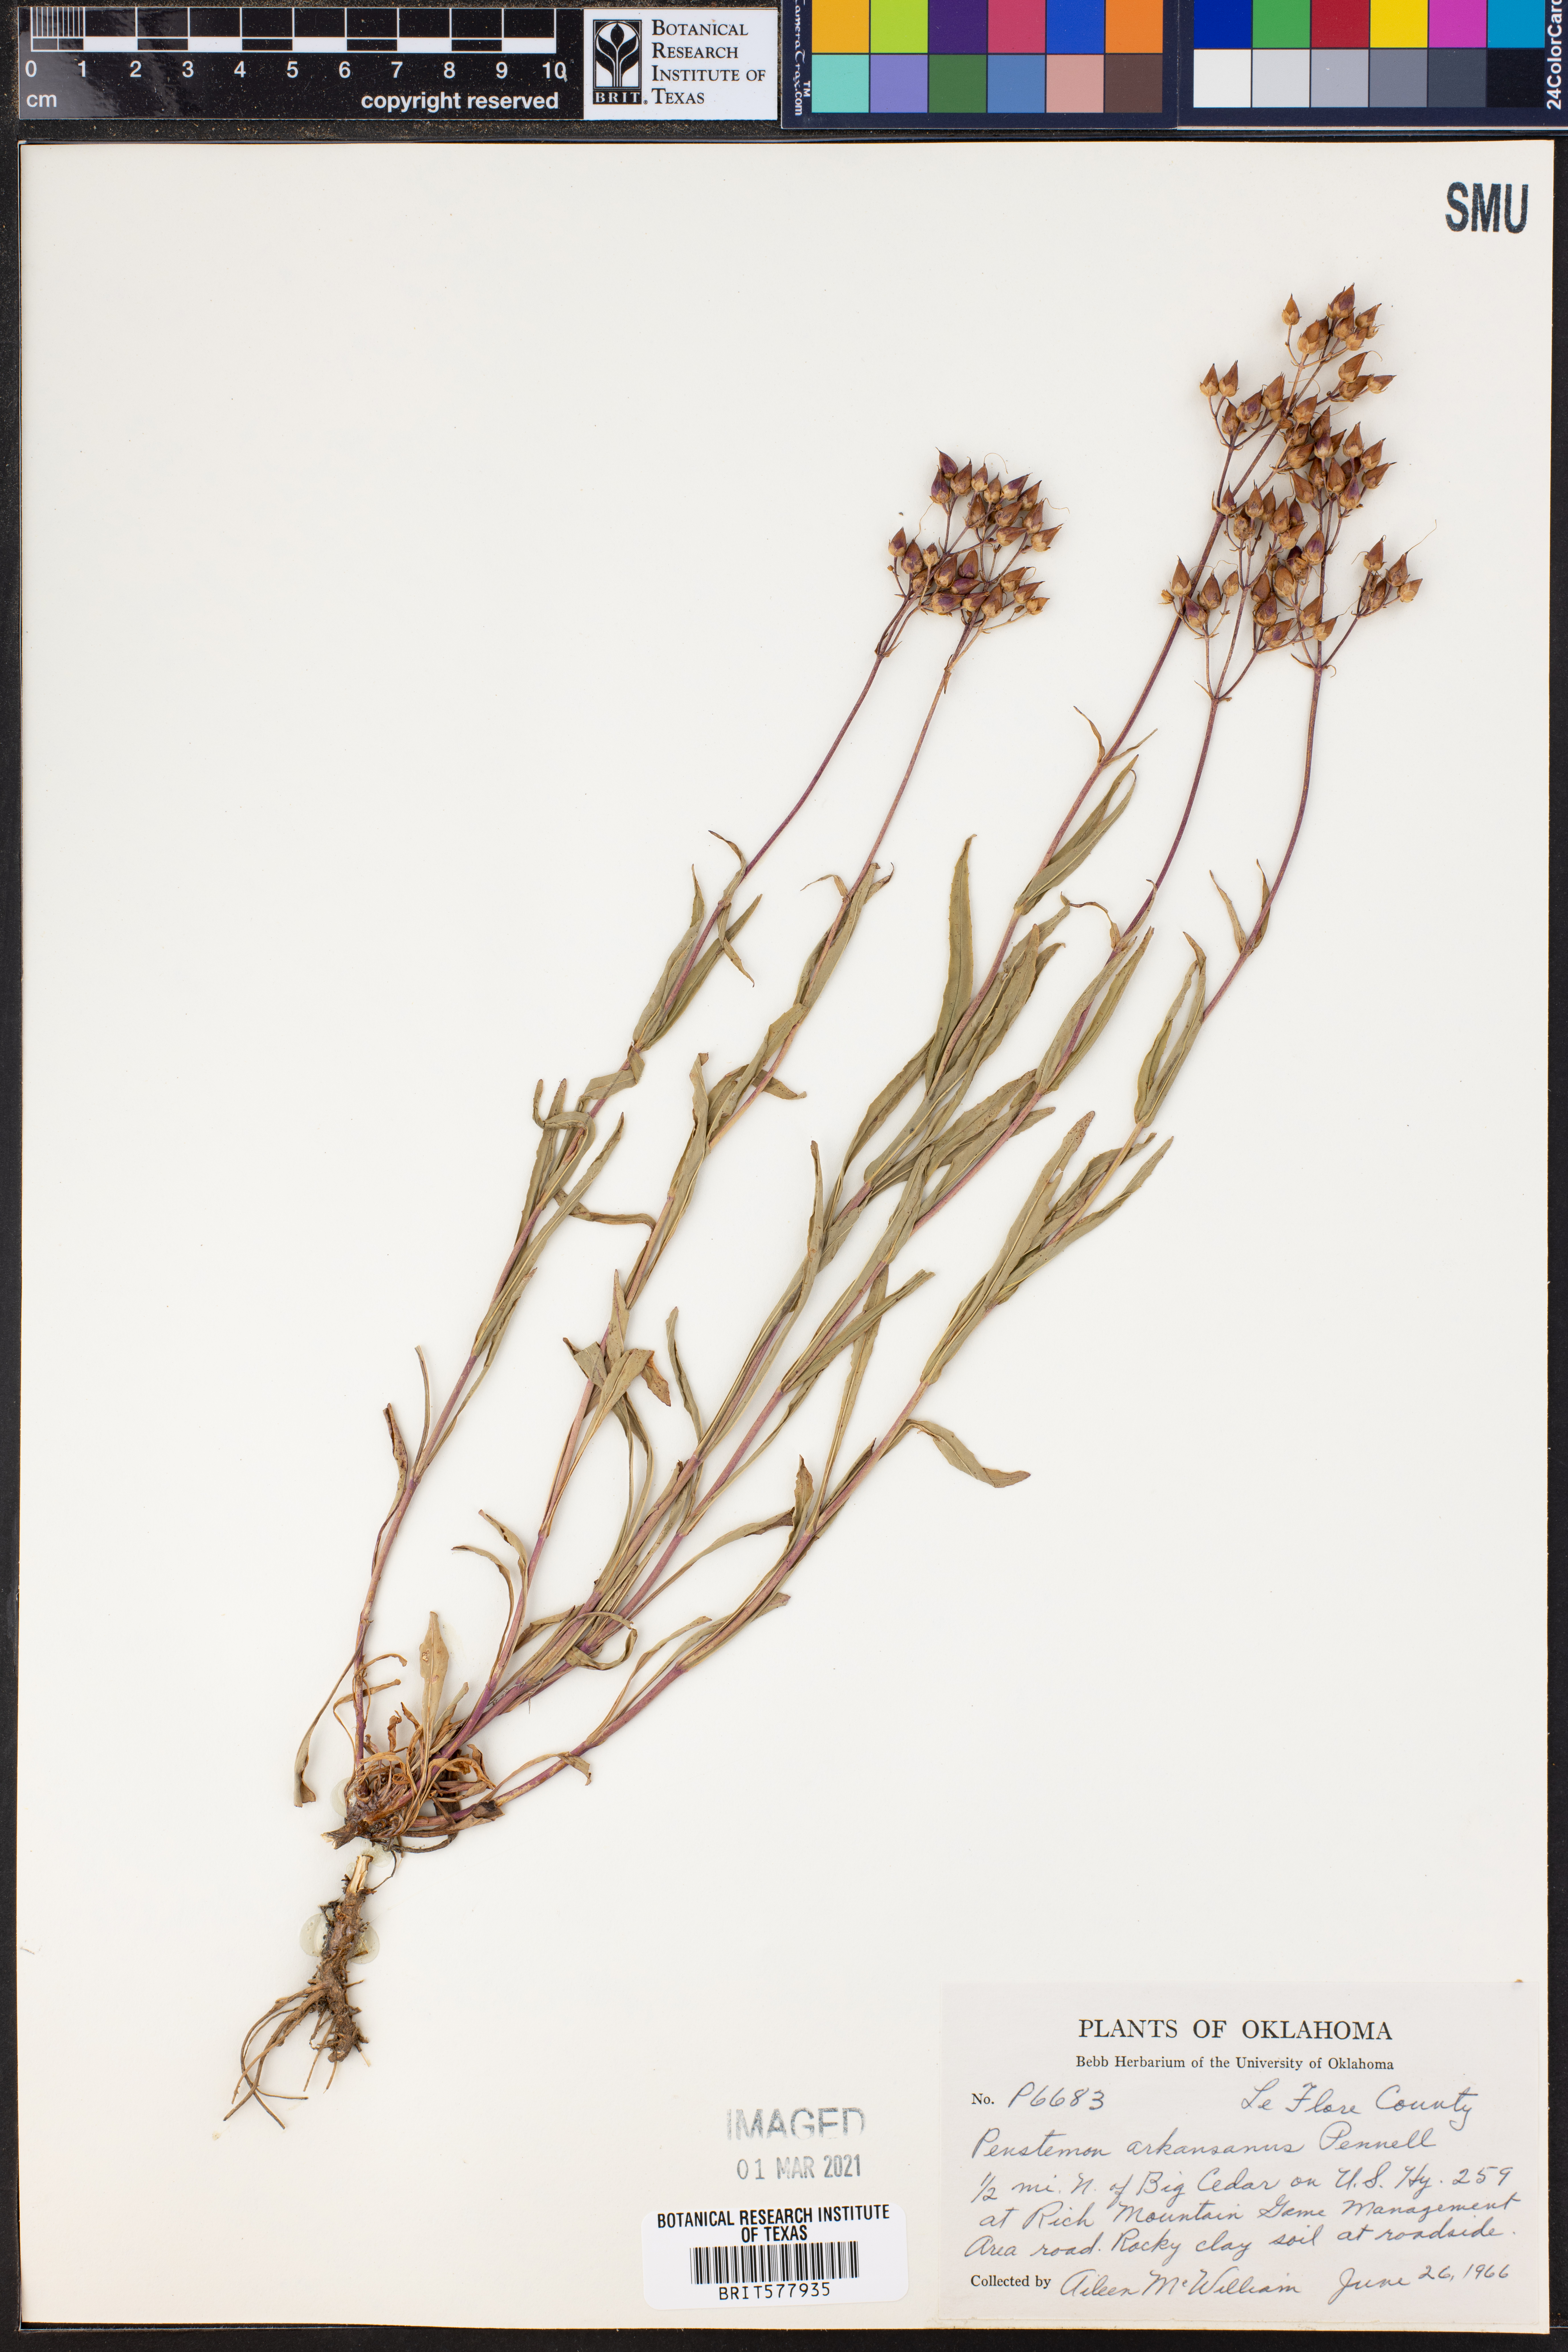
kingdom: Plantae
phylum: Tracheophyta
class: Magnoliopsida
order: Lamiales
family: Plantaginaceae
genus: Penstemon
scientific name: Penstemon arkansanus
